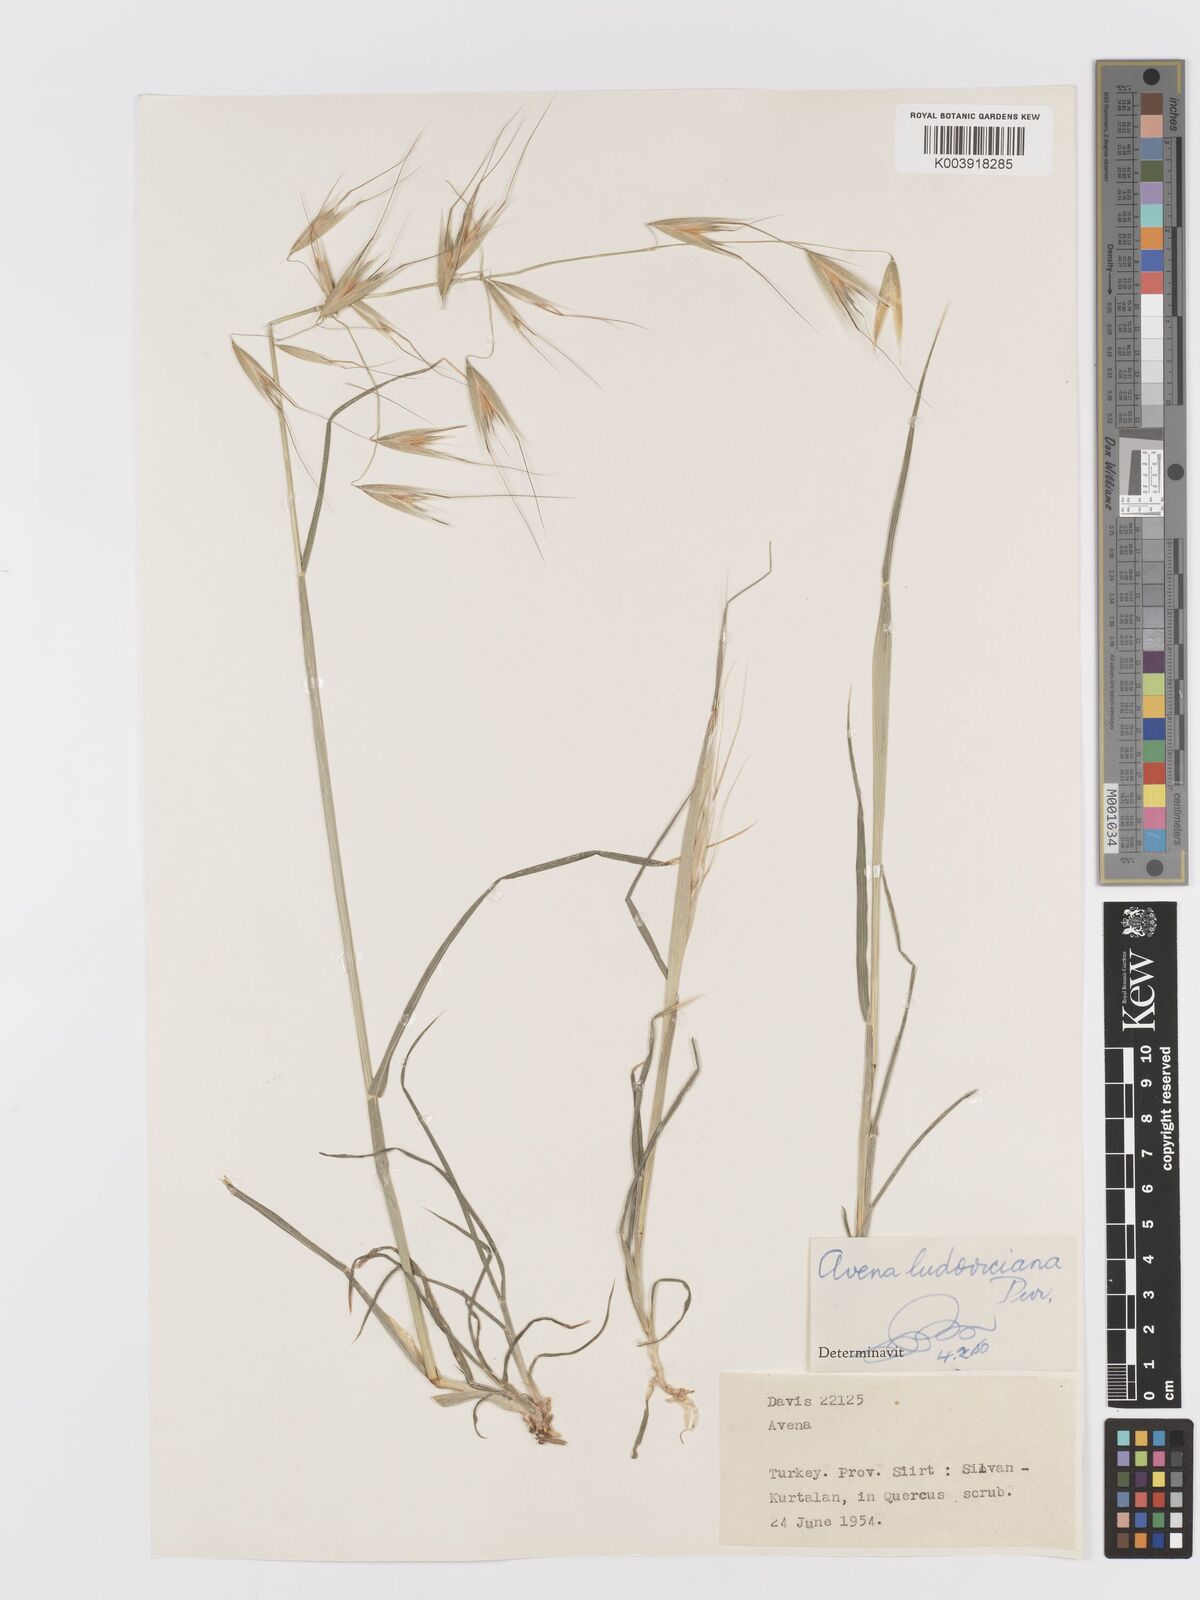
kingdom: Plantae
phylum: Tracheophyta
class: Liliopsida
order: Poales
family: Poaceae
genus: Avena
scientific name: Avena sterilis
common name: Animated oat
